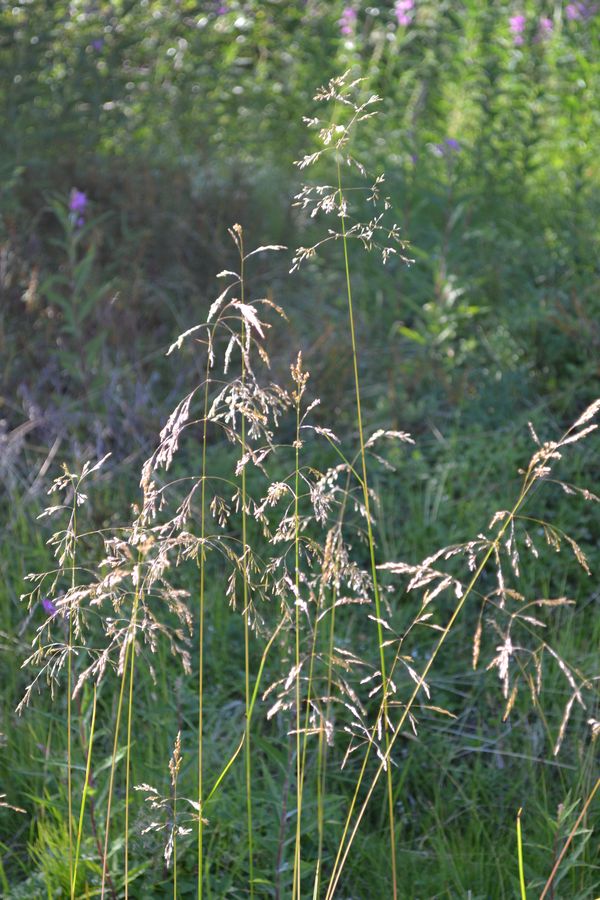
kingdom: Plantae
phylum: Tracheophyta
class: Liliopsida
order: Poales
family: Poaceae
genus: Deschampsia
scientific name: Deschampsia cespitosa
